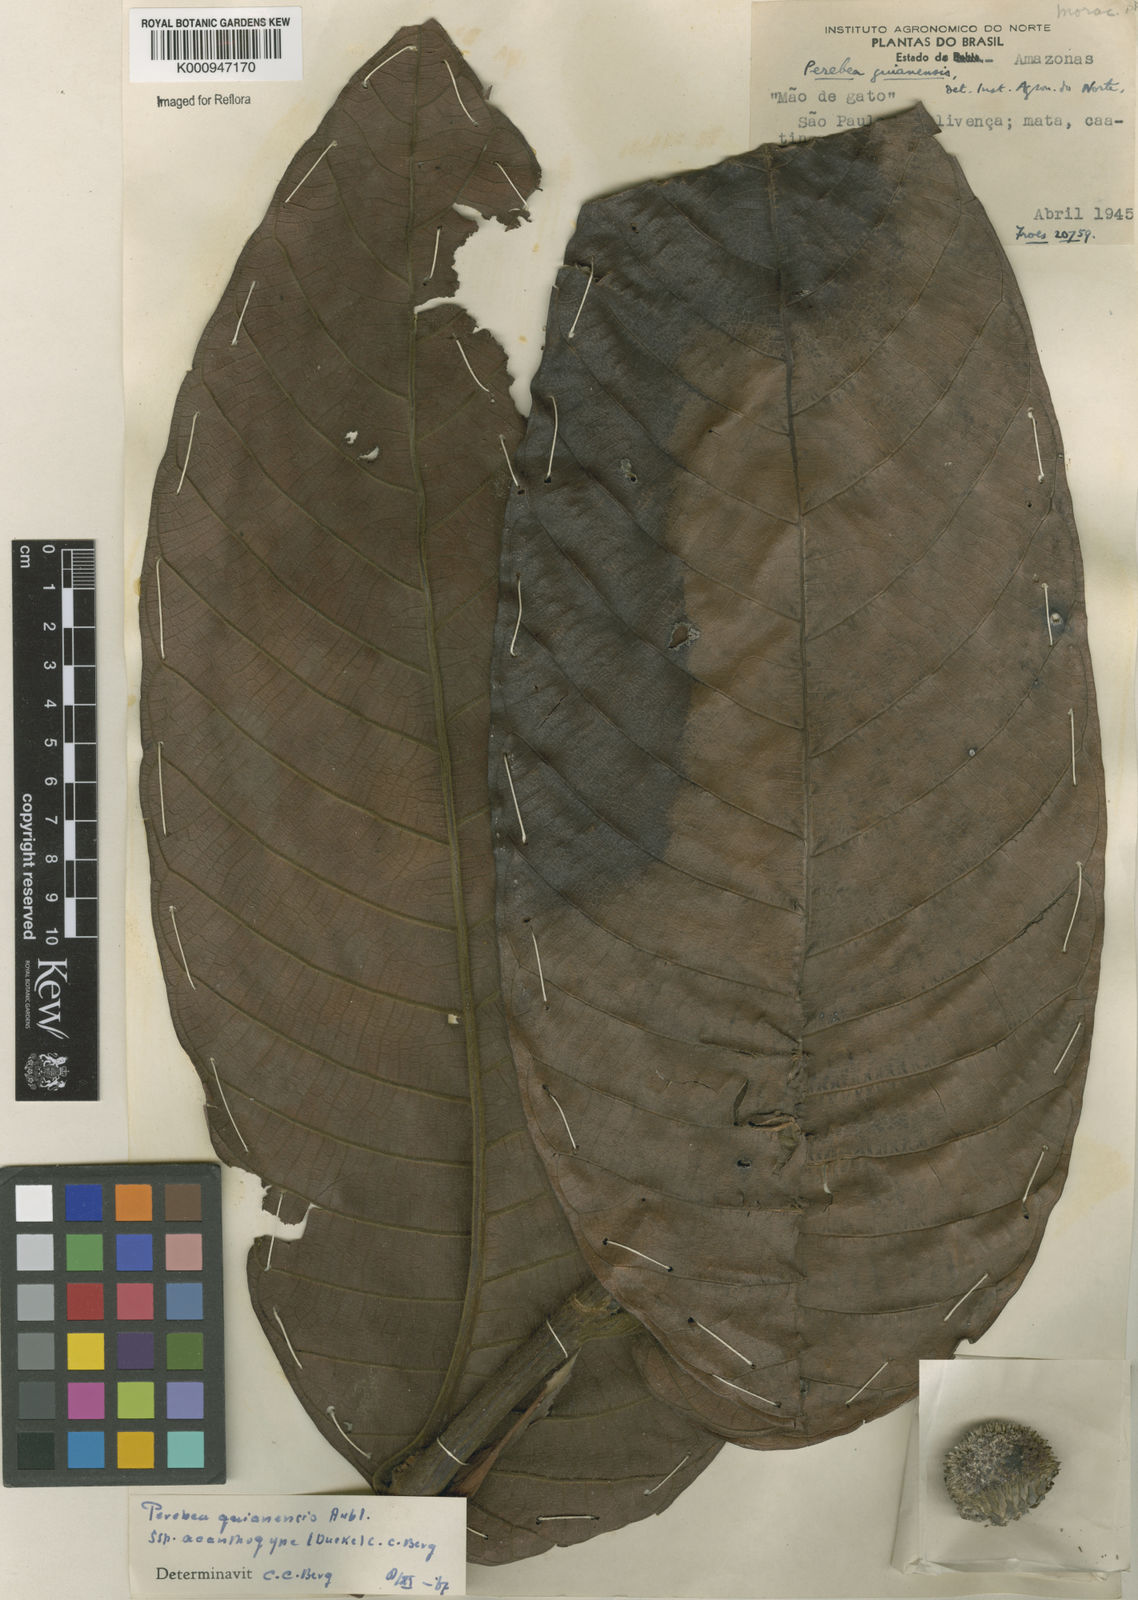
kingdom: Plantae
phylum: Tracheophyta
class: Magnoliopsida
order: Rosales
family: Moraceae
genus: Perebea
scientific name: Perebea guianensis
